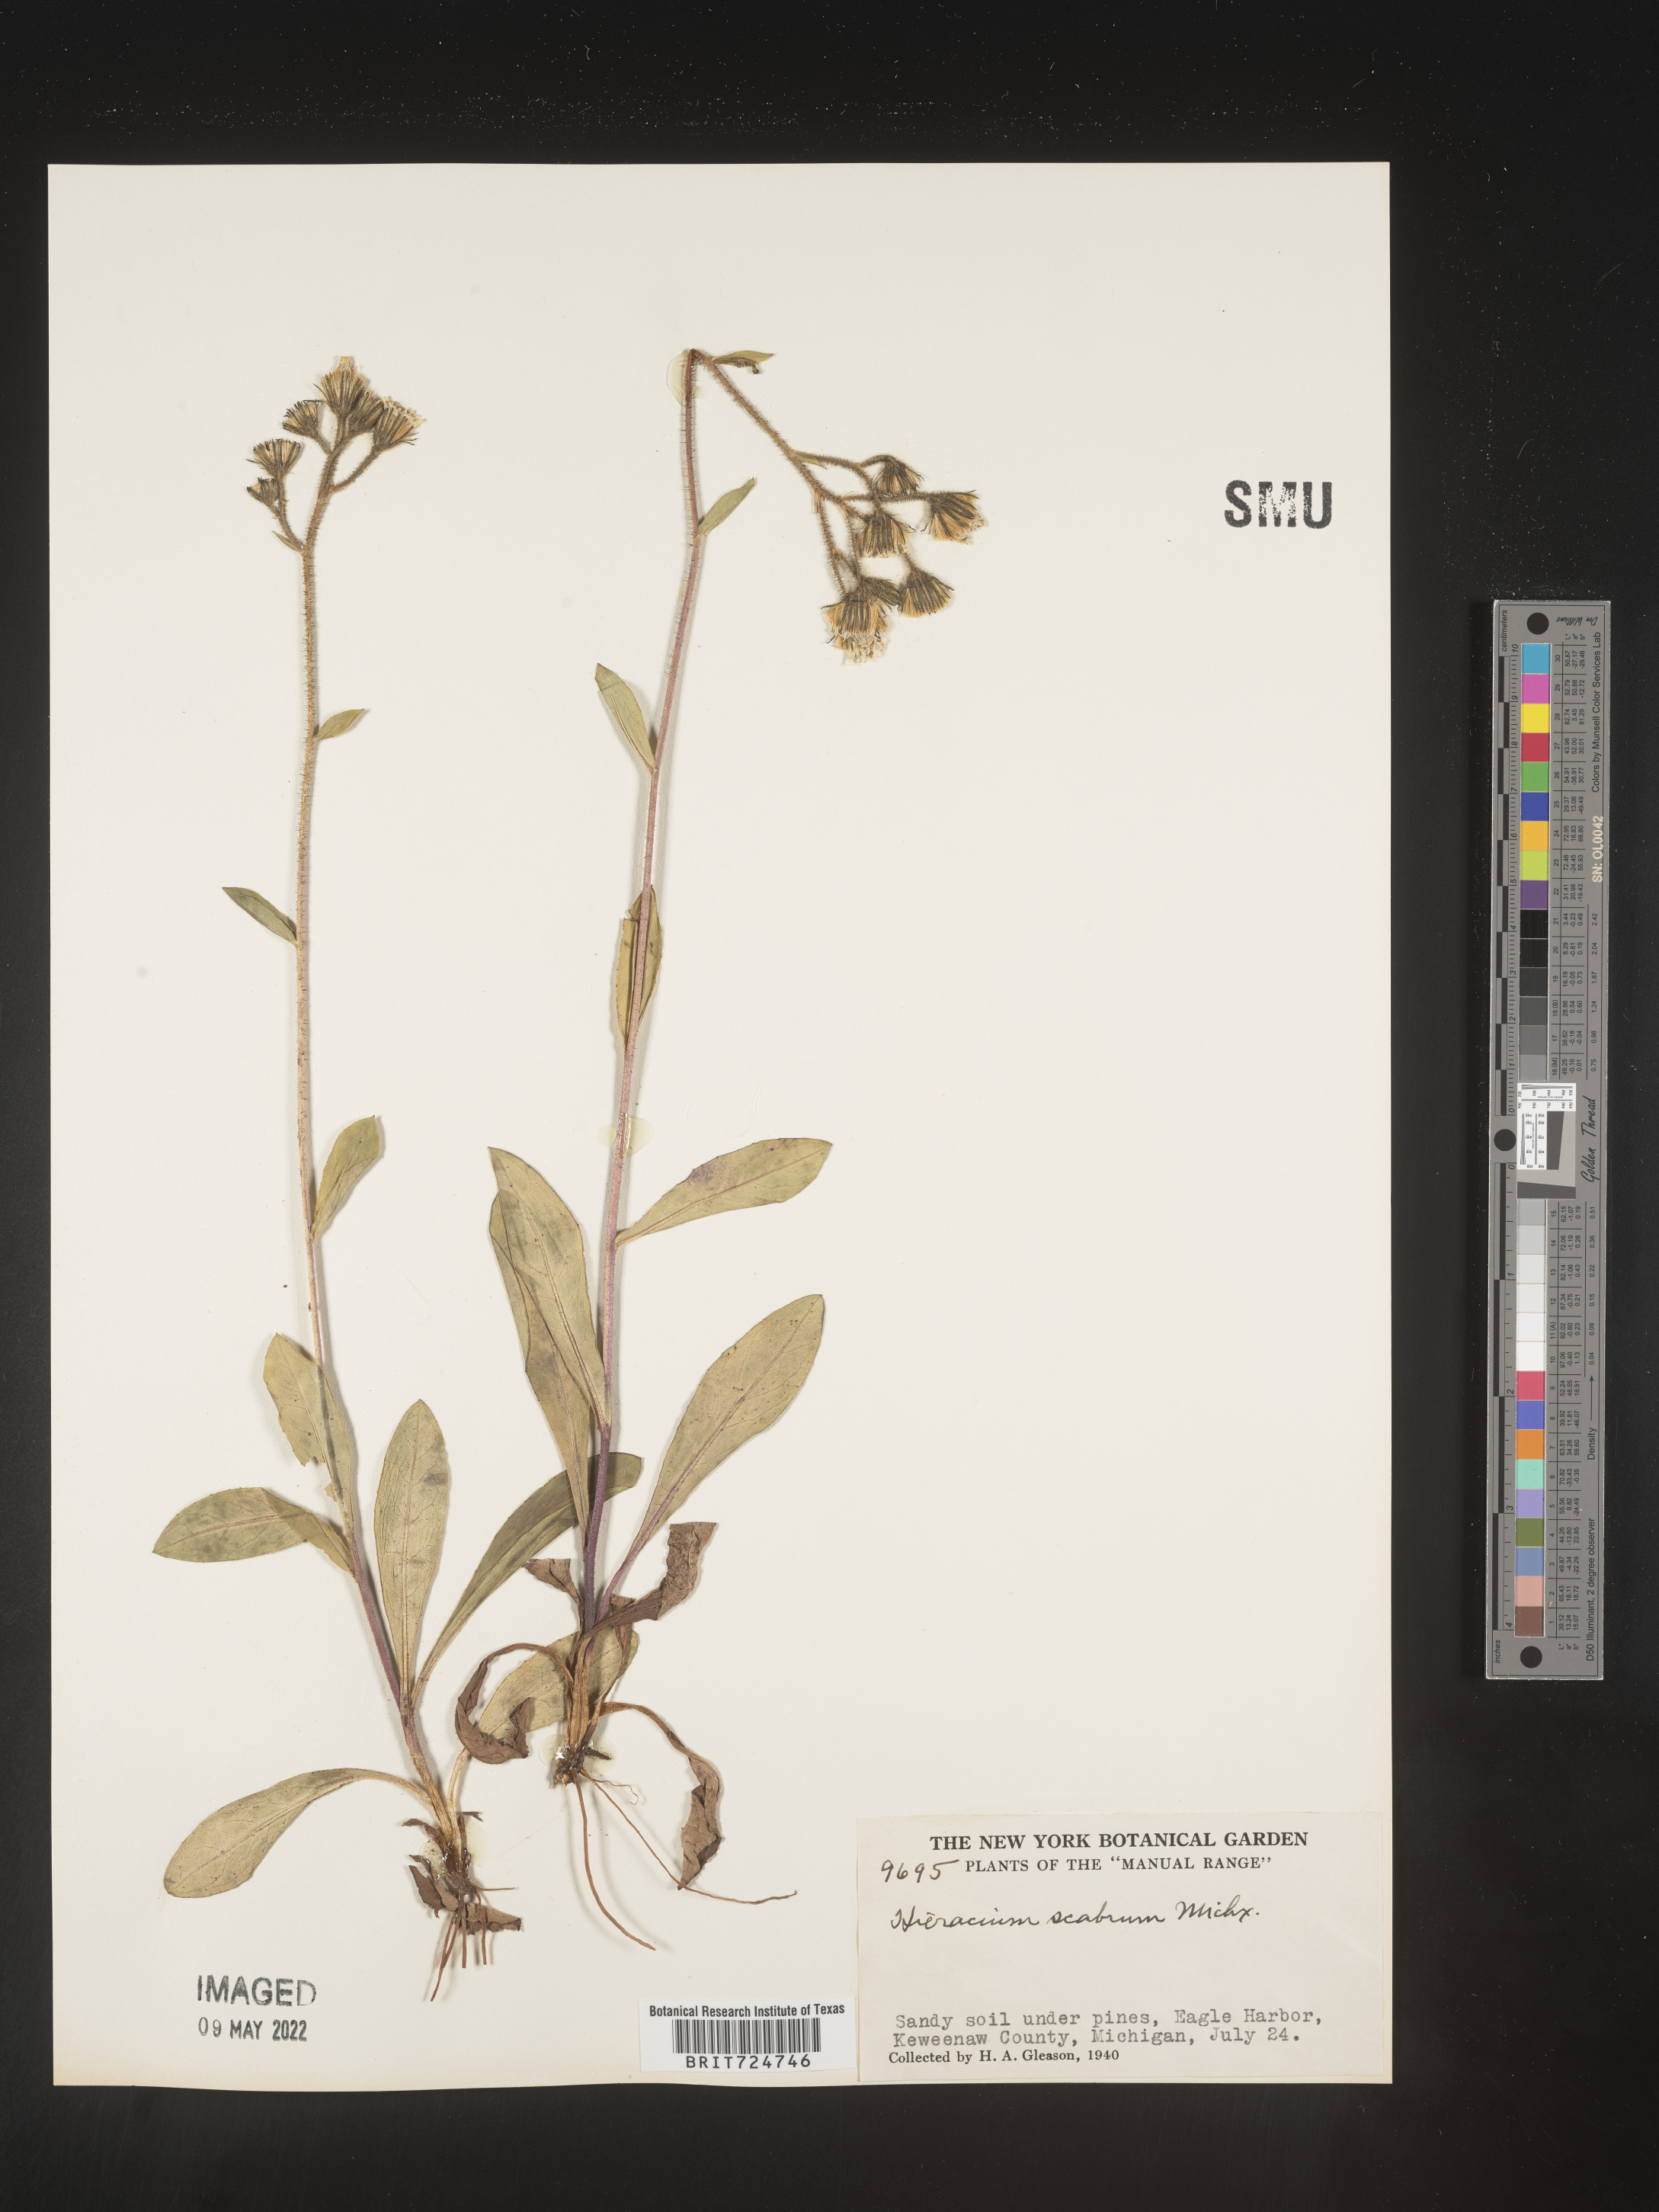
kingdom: Plantae
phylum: Tracheophyta
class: Magnoliopsida
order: Asterales
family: Asteraceae
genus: Hieracium
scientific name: Hieracium scabrum
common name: Rough hawkweed
